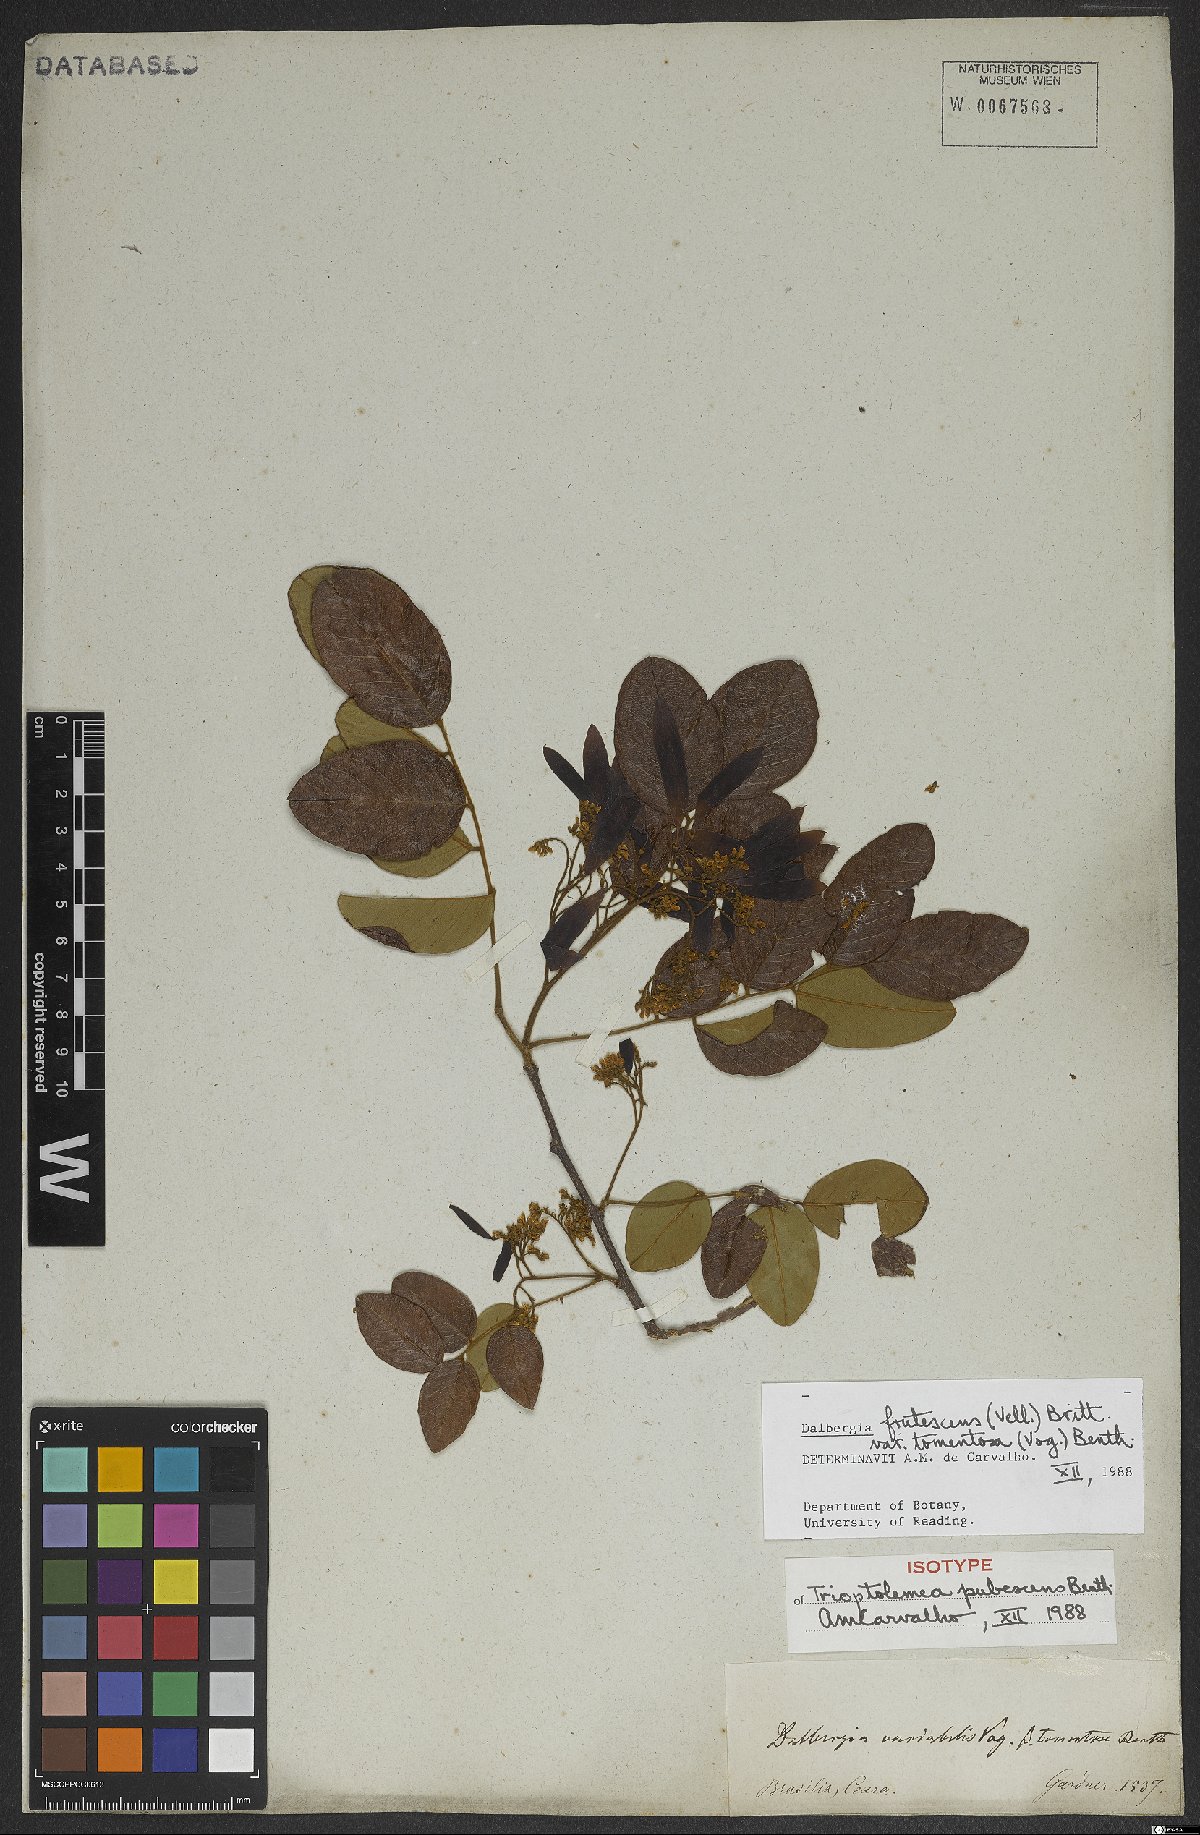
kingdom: Plantae
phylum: Tracheophyta
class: Magnoliopsida
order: Fabales
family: Fabaceae
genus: Dalbergia
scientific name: Dalbergia frutescens
